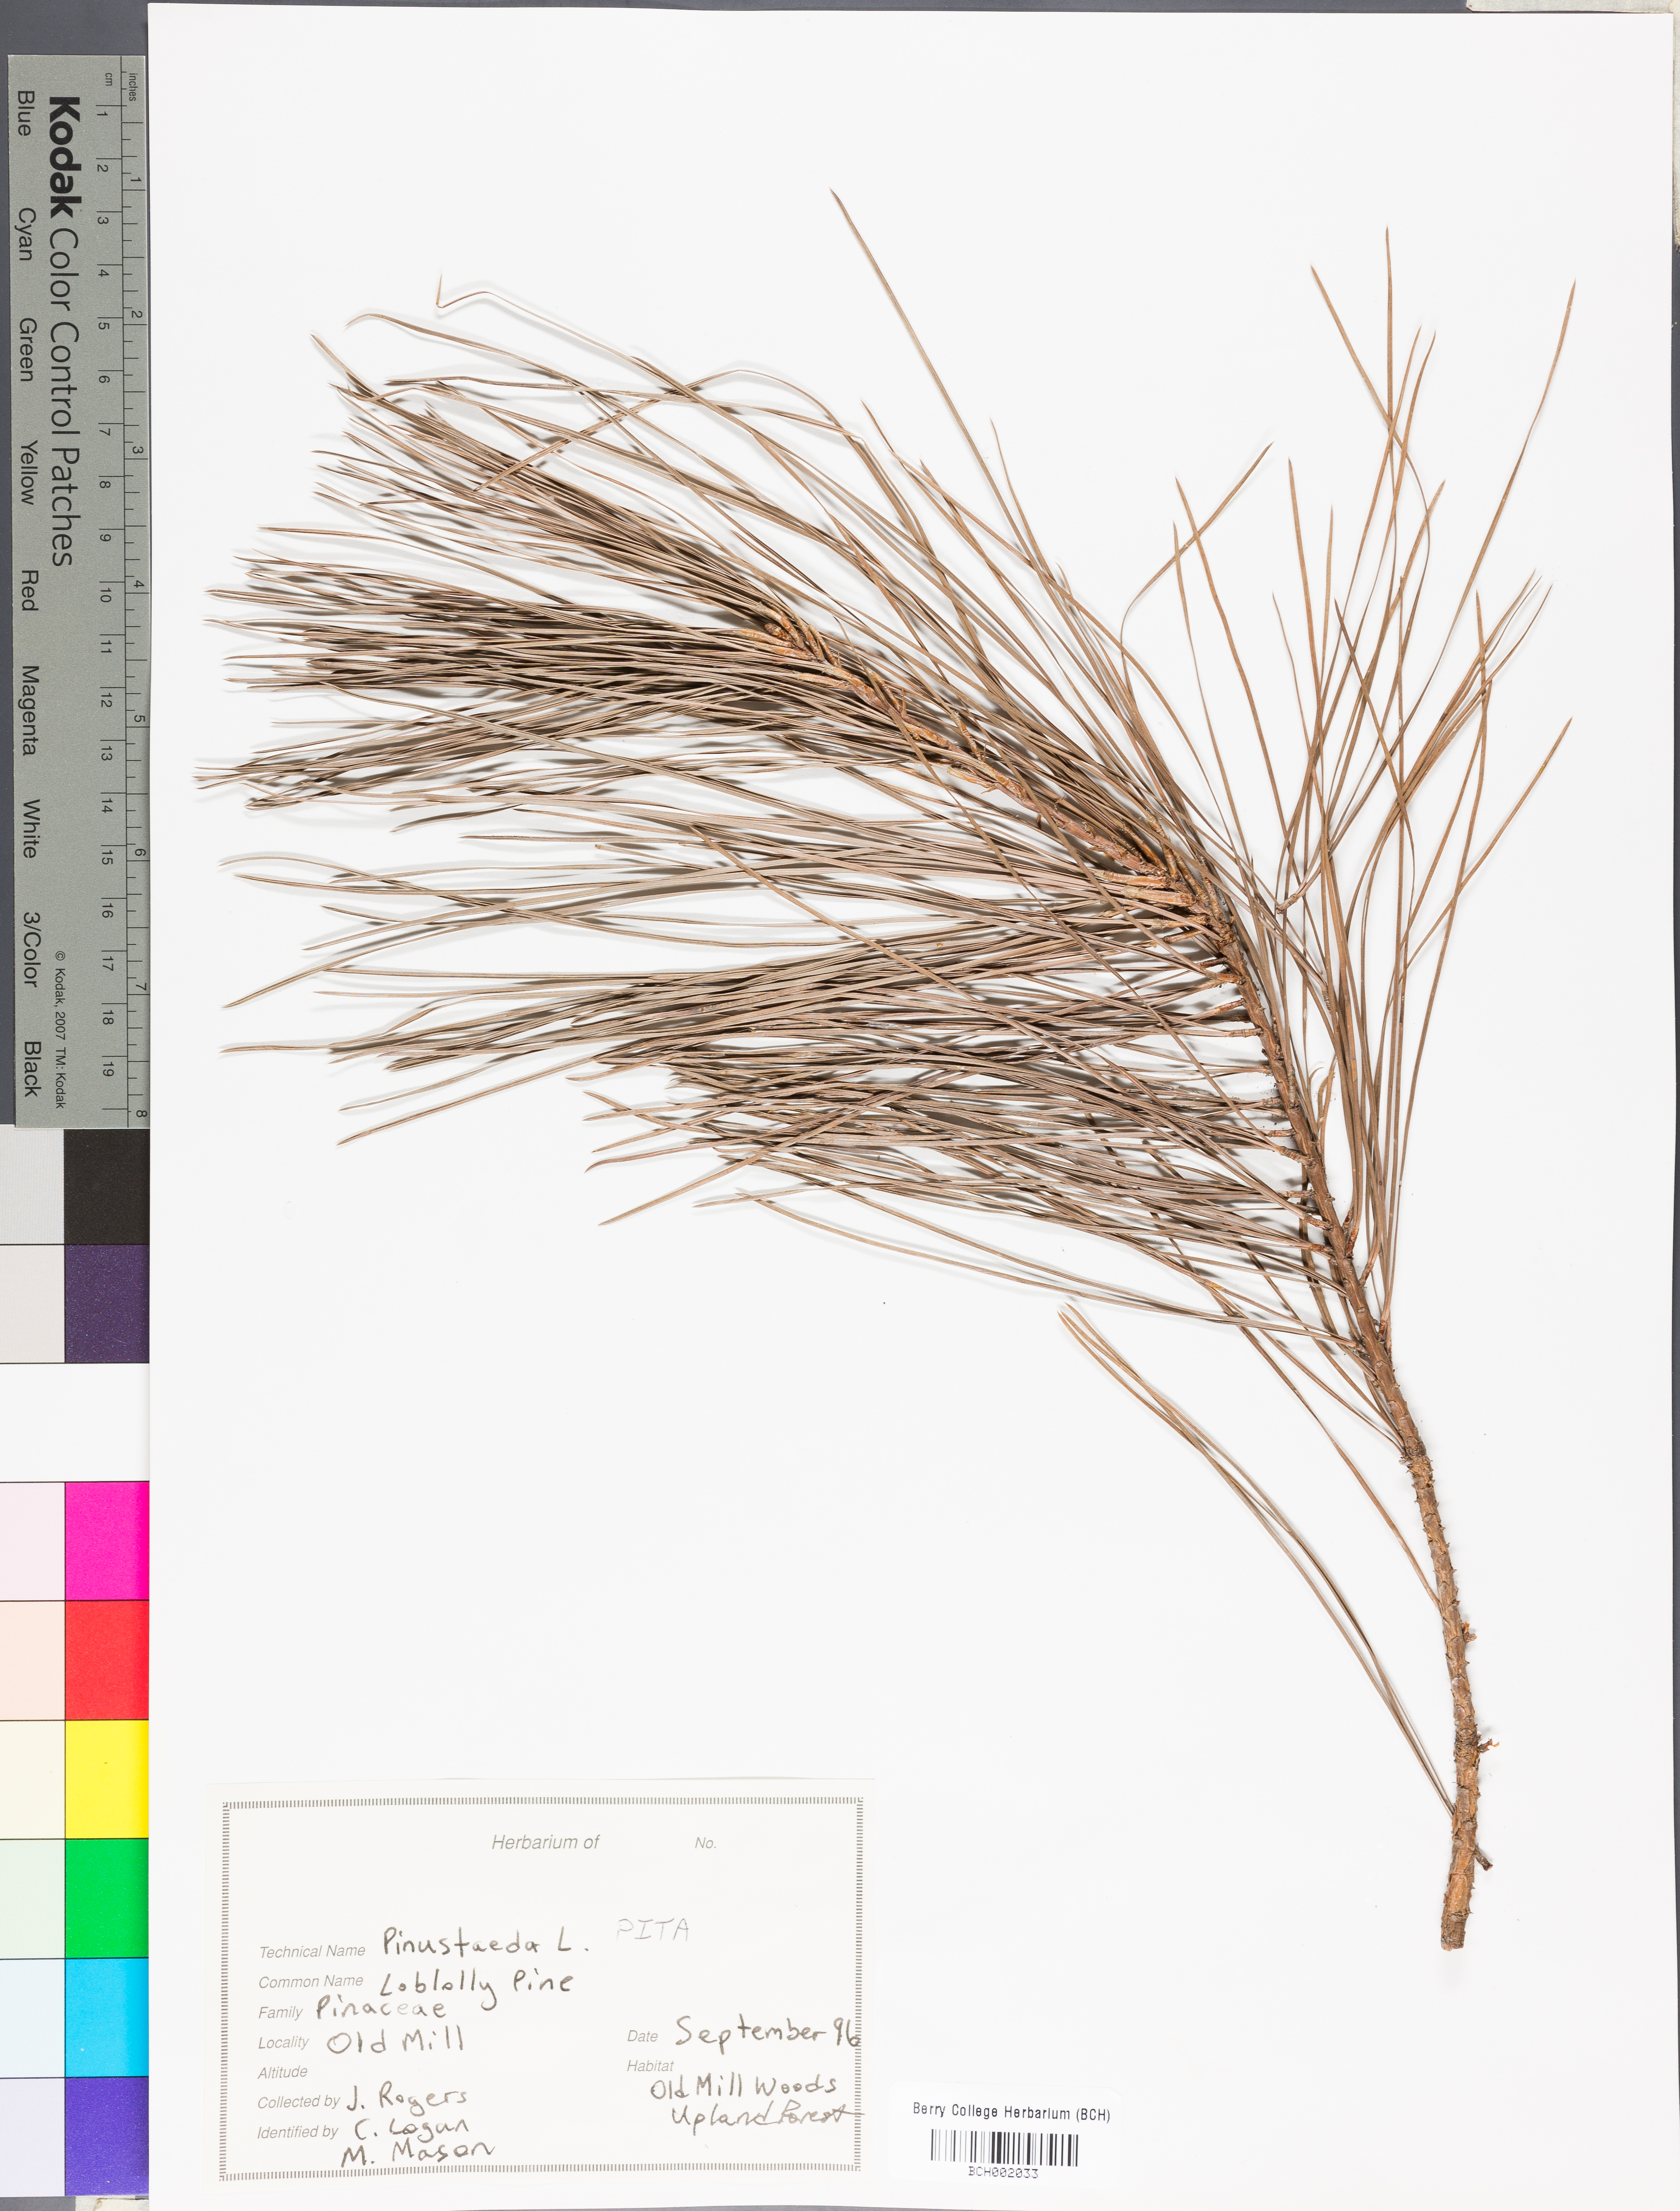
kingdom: Plantae
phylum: Tracheophyta
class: Pinopsida
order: Pinales
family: Pinaceae
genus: Pinus
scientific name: Pinus taeda
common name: Loblolly pine
